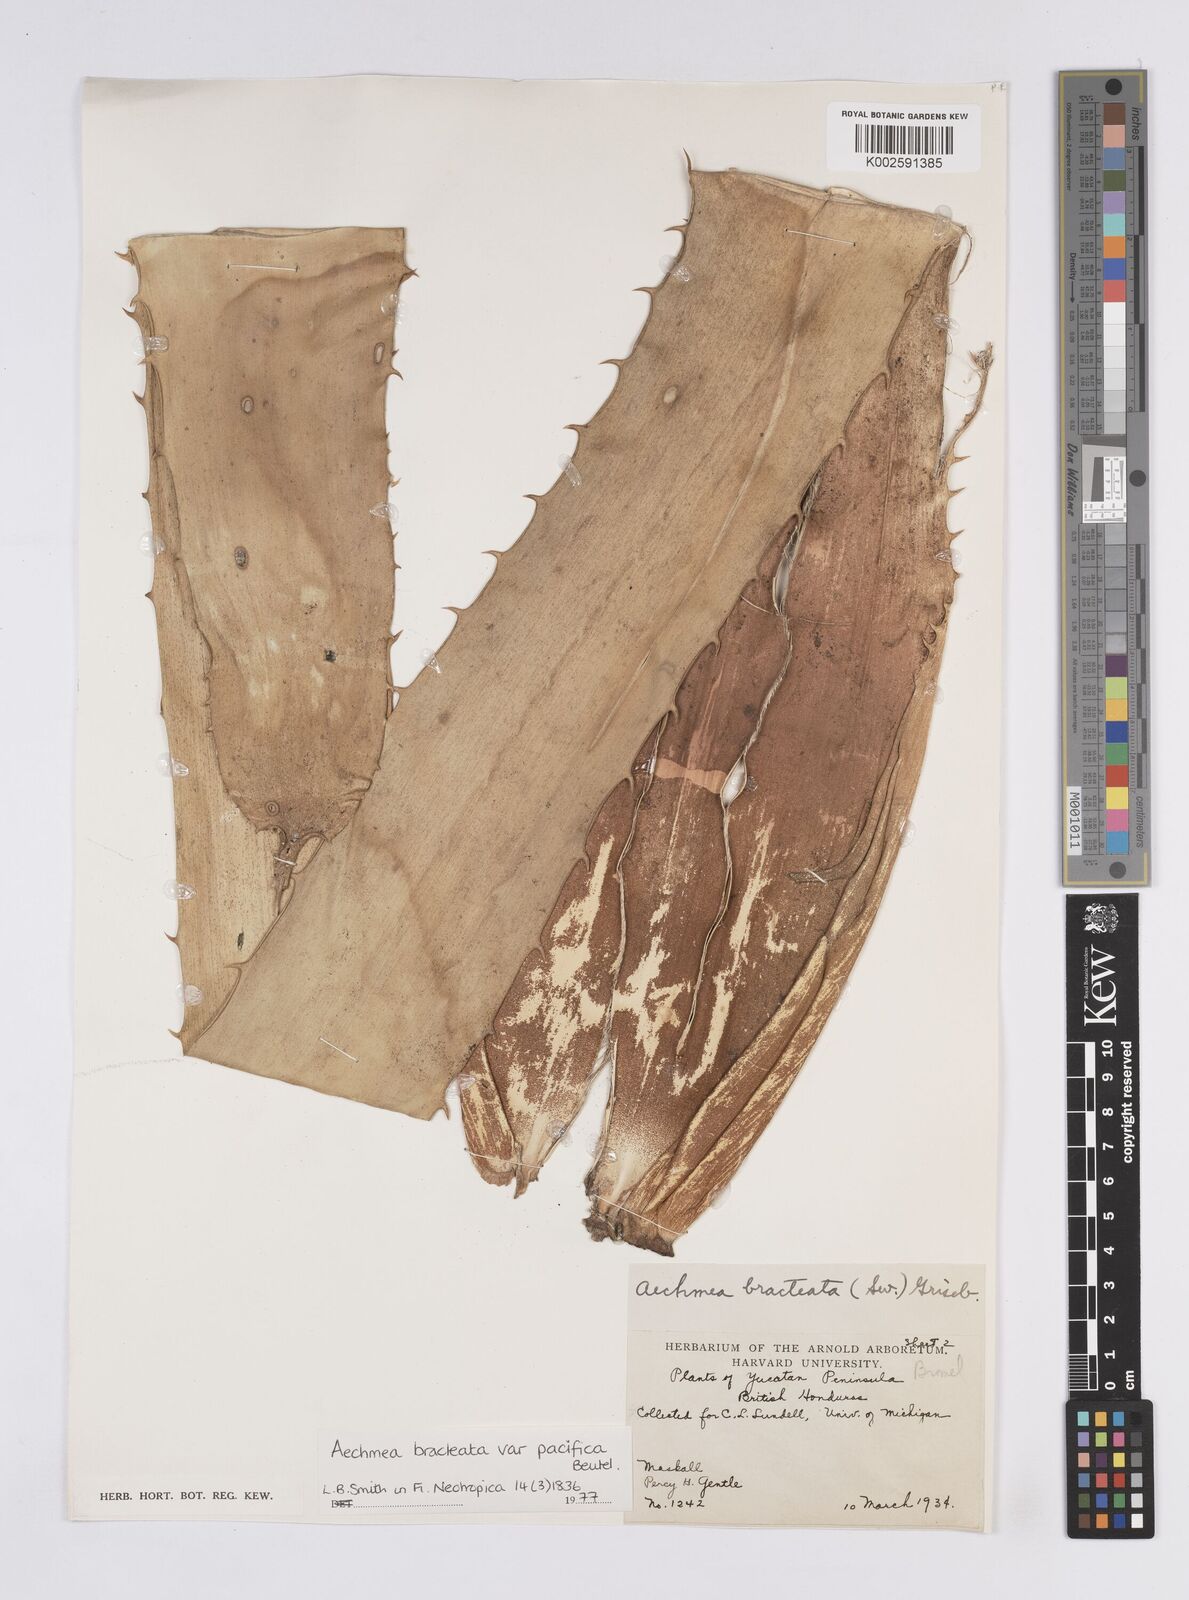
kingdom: Plantae
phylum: Tracheophyta
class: Liliopsida
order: Poales
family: Bromeliaceae
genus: Aechmea
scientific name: Aechmea bracteata
